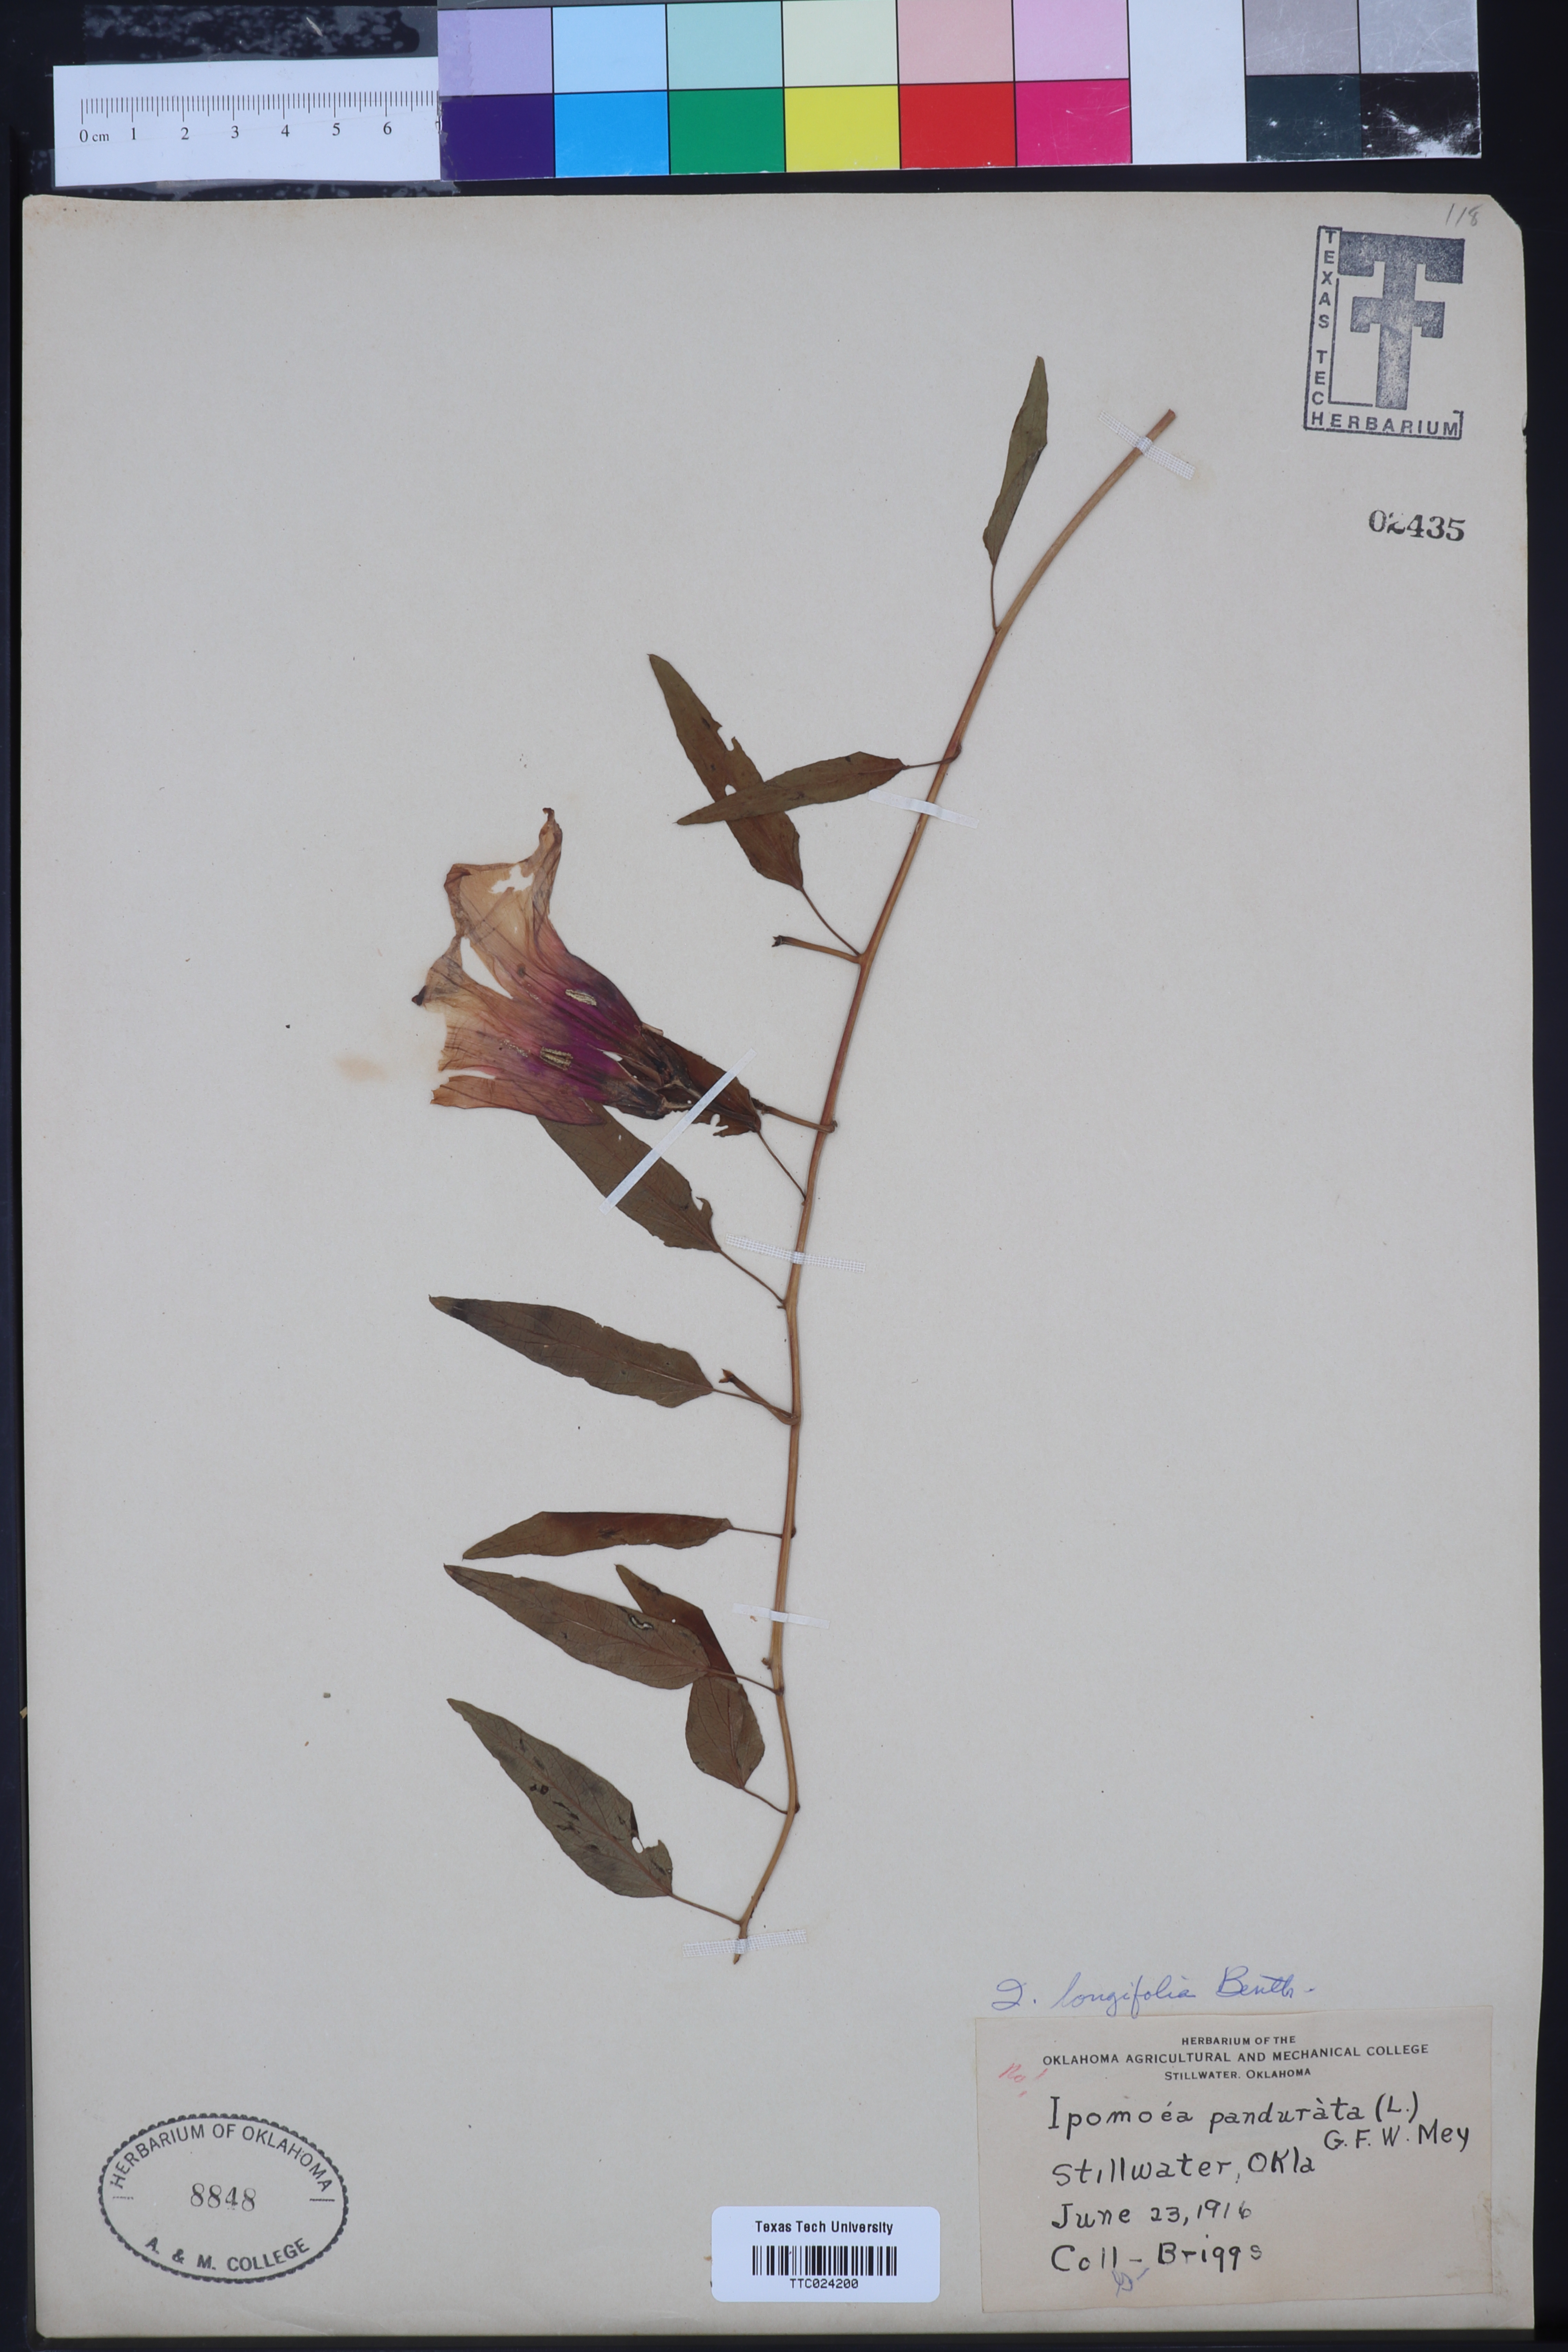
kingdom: Plantae
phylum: Tracheophyta
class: Magnoliopsida
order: Solanales
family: Convolvulaceae
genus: Ipomoea
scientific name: Ipomoea pandurata
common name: Man-of-the-earth
